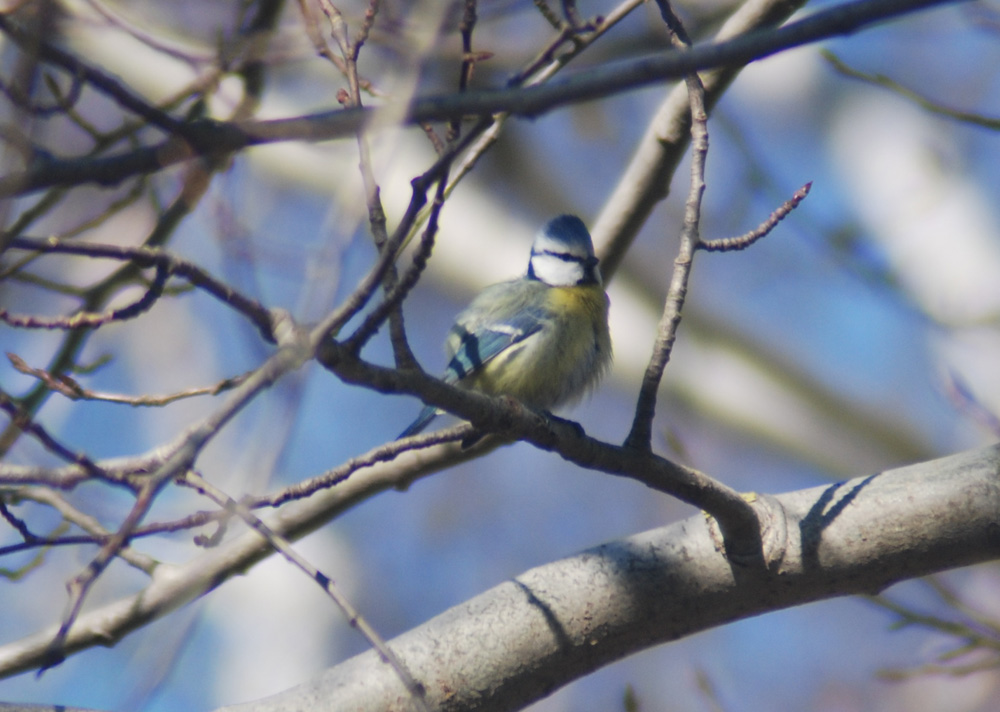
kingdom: Animalia
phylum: Chordata
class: Aves
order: Passeriformes
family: Paridae
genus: Cyanistes
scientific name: Cyanistes caeruleus
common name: Eurasian blue tit
